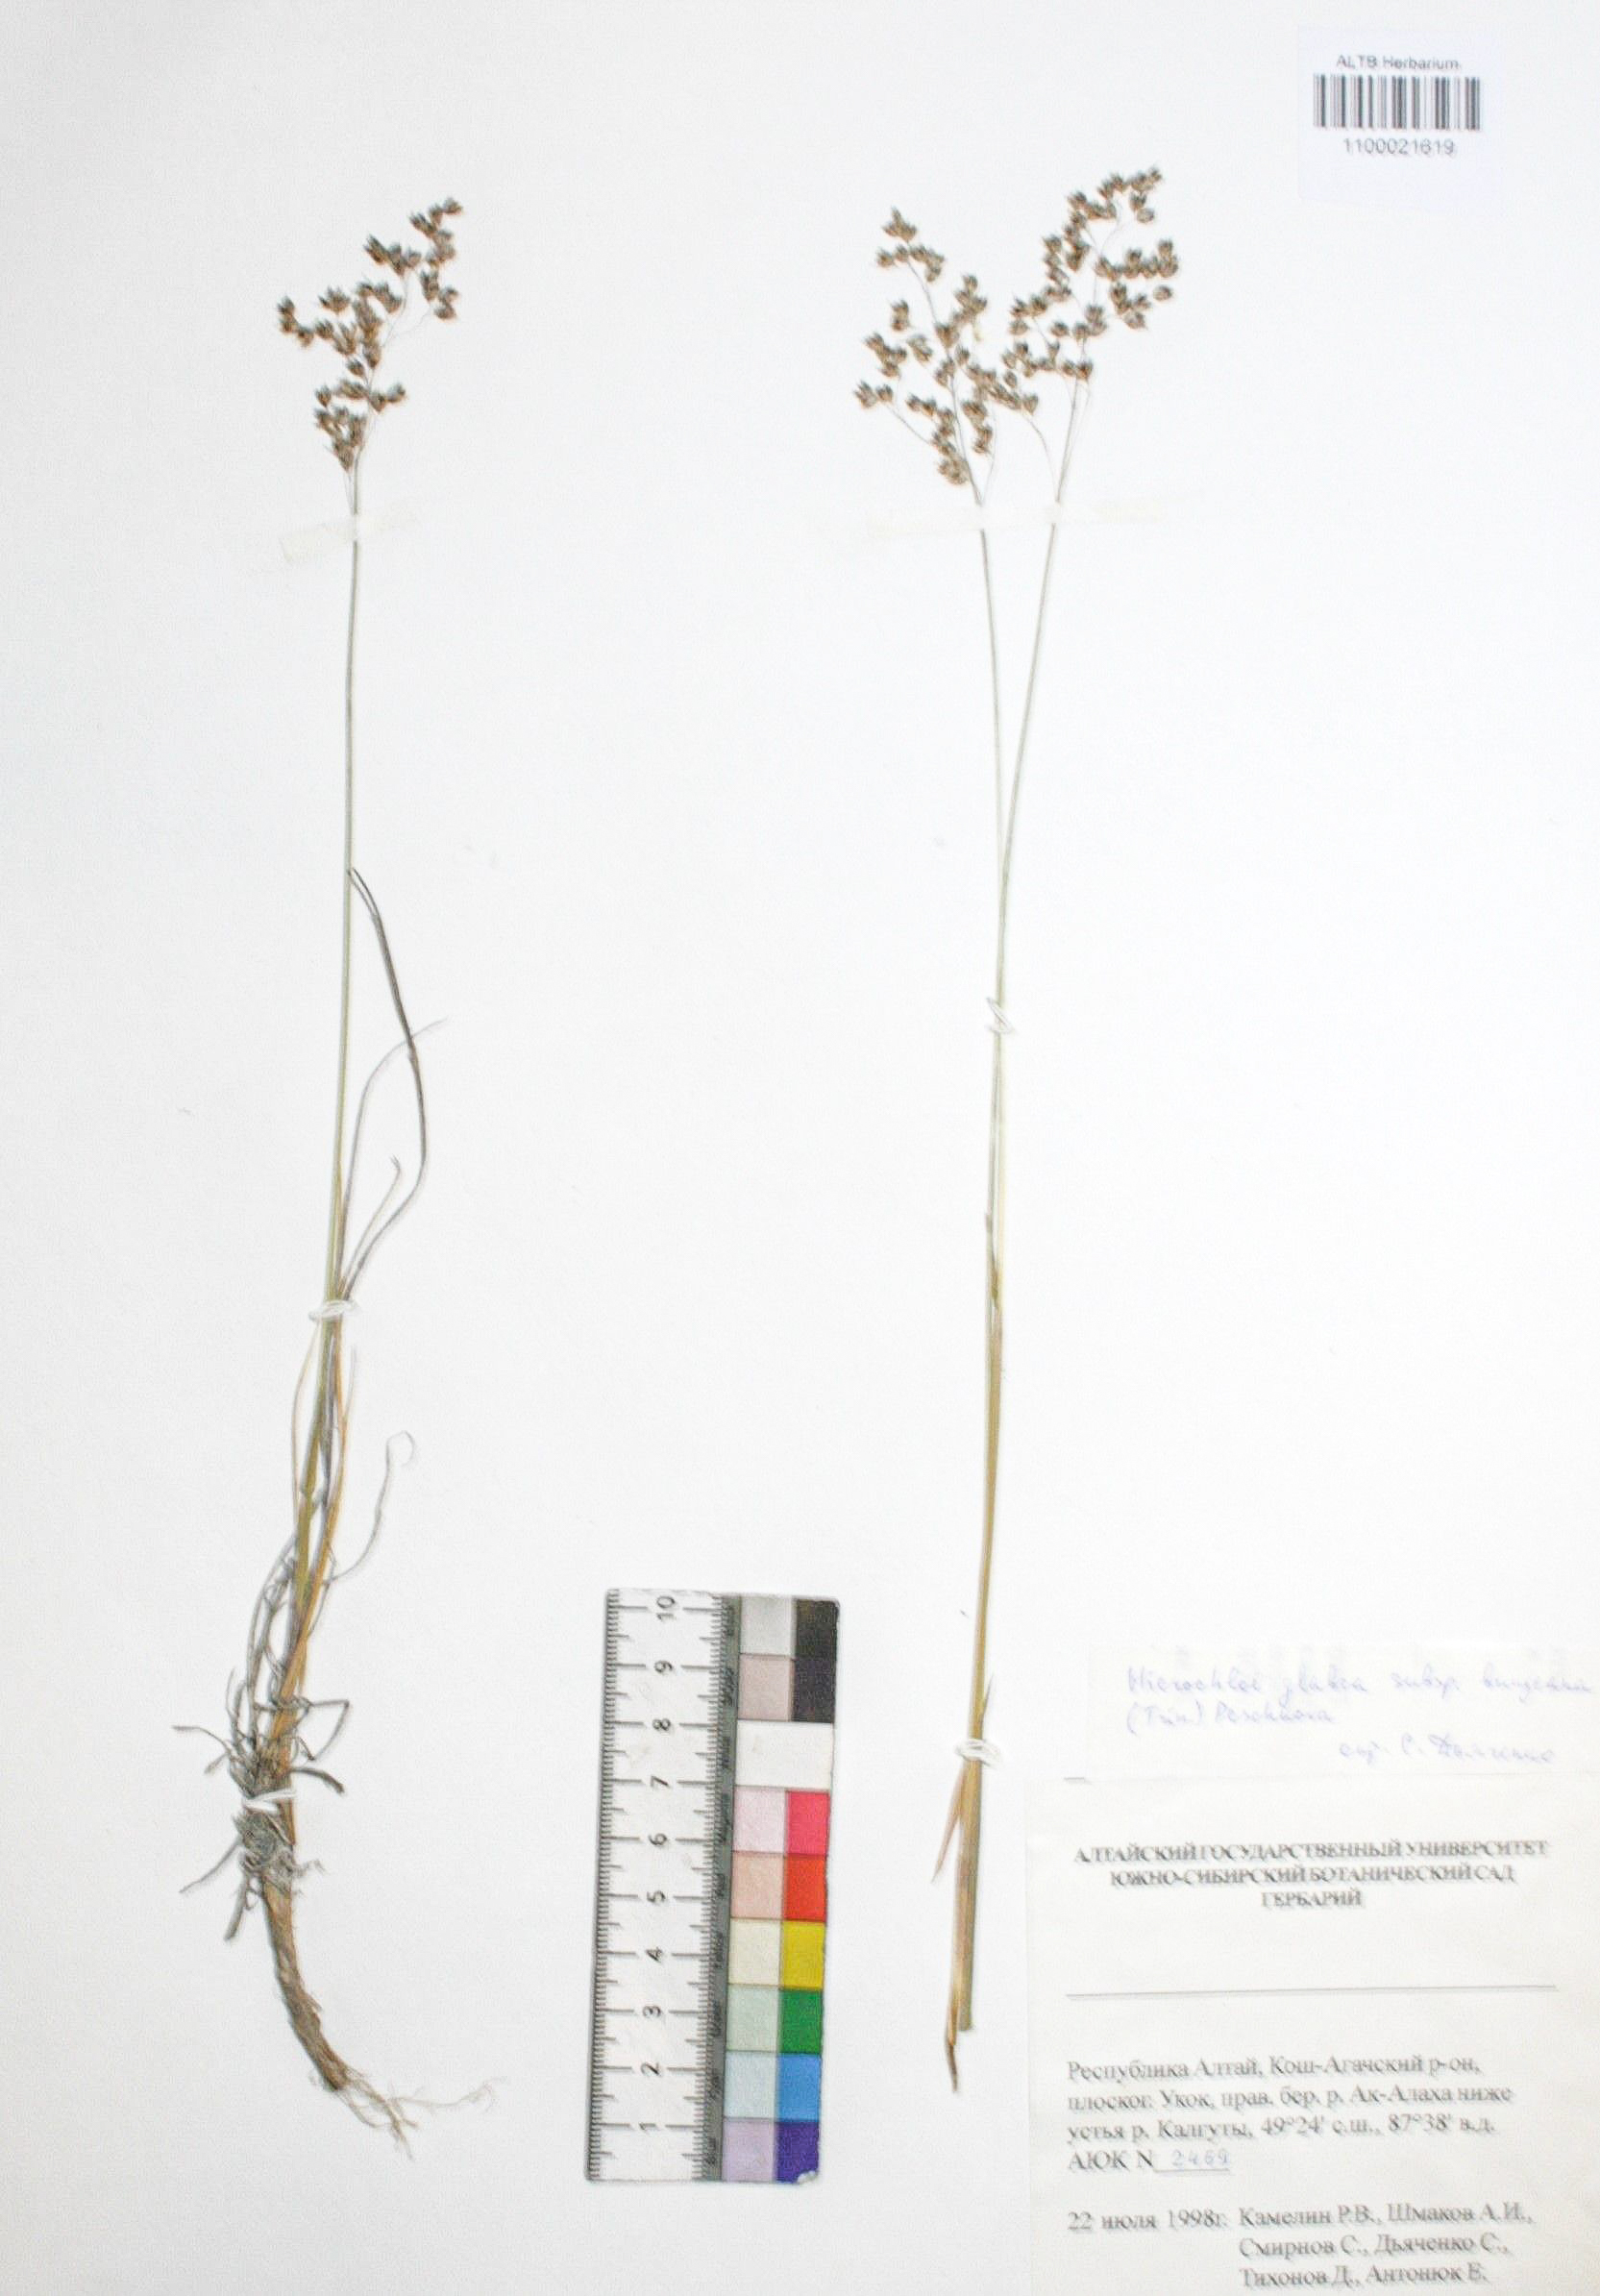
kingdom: Plantae
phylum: Tracheophyta
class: Liliopsida
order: Poales
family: Poaceae
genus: Anthoxanthum
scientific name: Anthoxanthum glabrum
